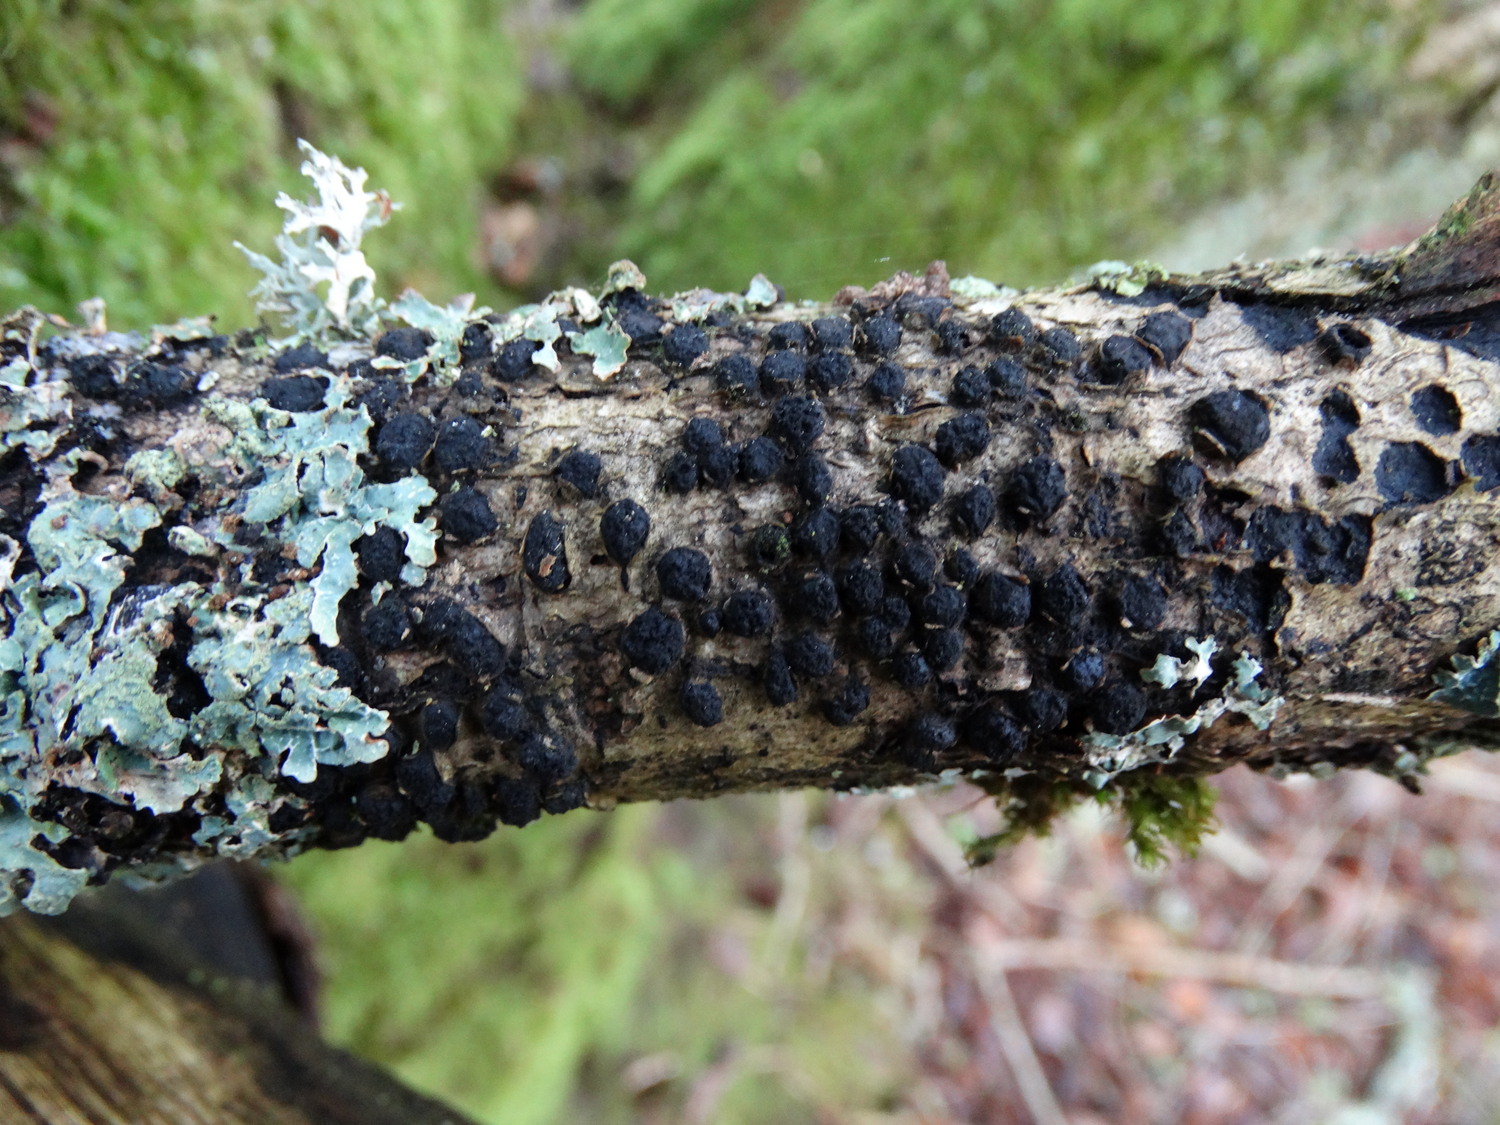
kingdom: Fungi
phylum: Ascomycota
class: Sordariomycetes
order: Xylariales
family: Diatrypaceae
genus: Diatrypella
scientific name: Diatrypella quercina
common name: ege-kulskorpe
